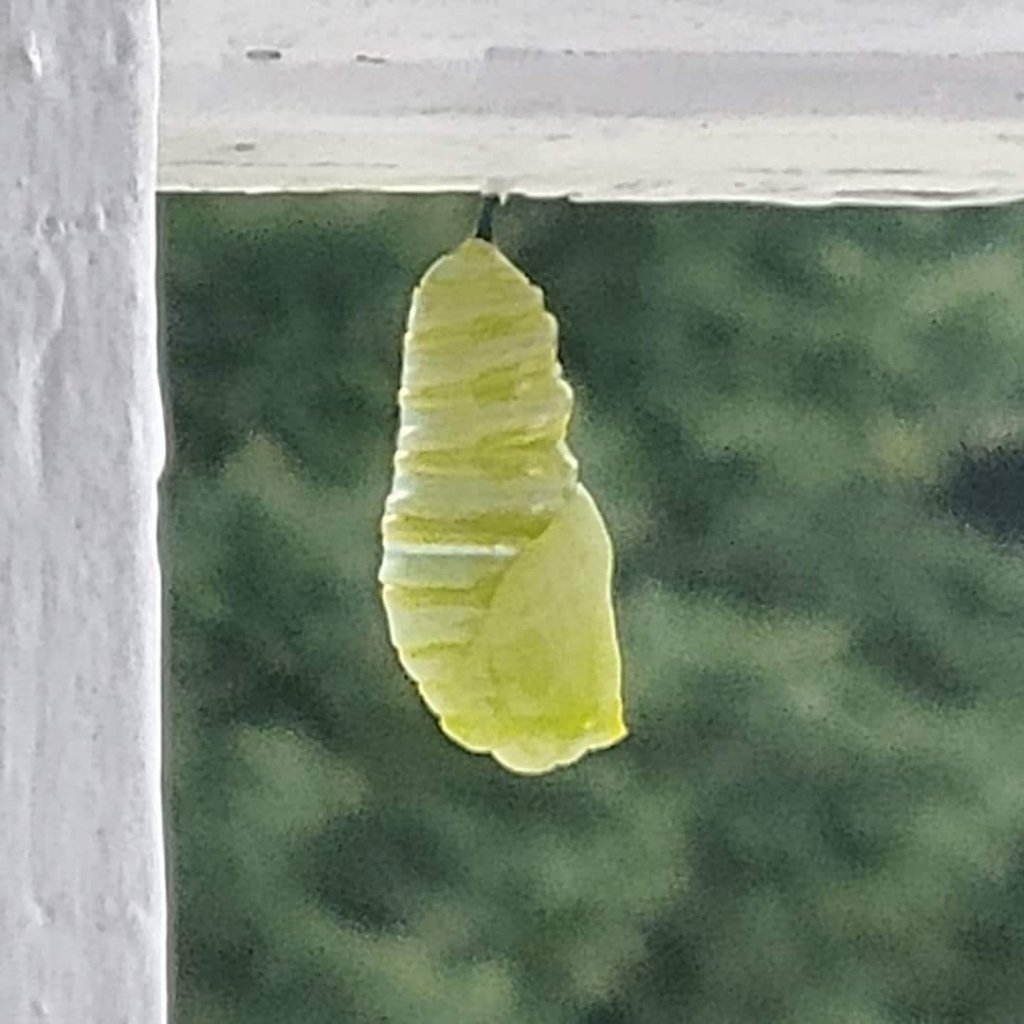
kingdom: Animalia
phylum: Arthropoda
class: Insecta
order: Lepidoptera
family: Nymphalidae
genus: Danaus
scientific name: Danaus plexippus
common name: Monarch
